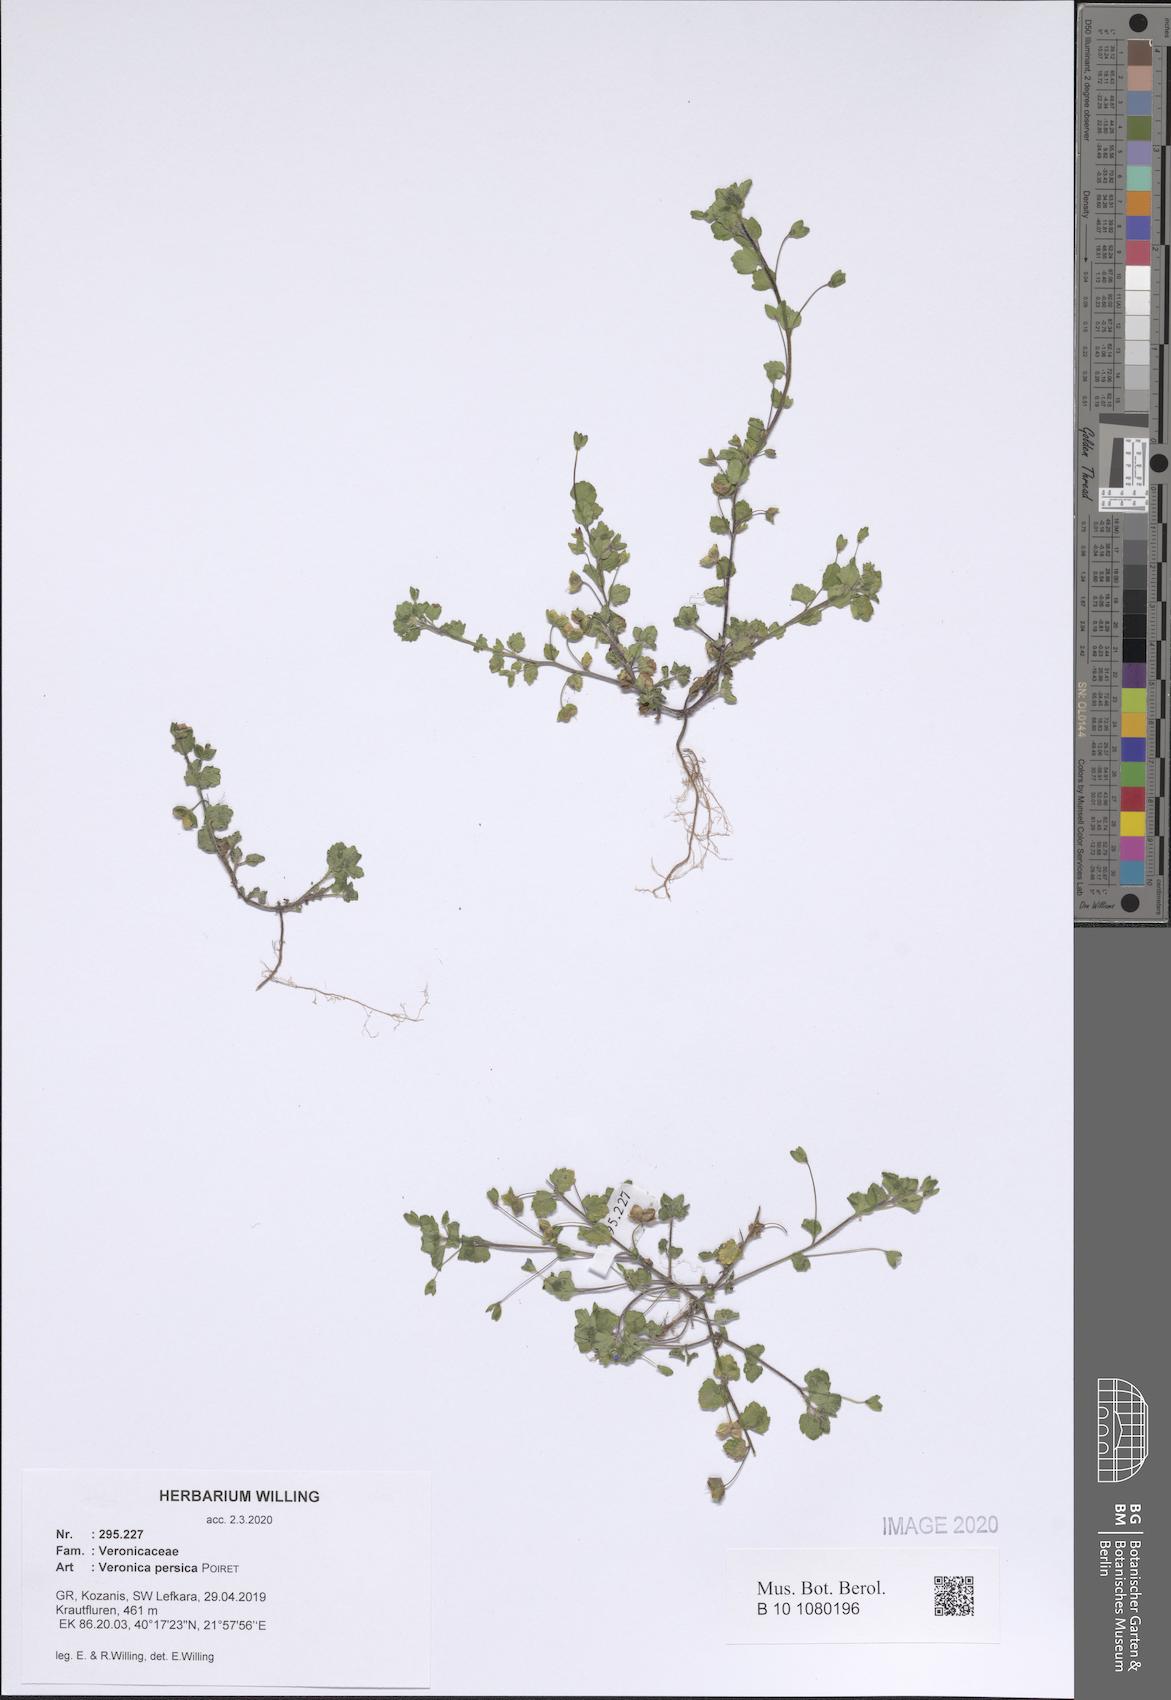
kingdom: Plantae
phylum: Tracheophyta
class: Magnoliopsida
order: Lamiales
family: Plantaginaceae
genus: Veronica
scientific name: Veronica persica
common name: Common field-speedwell
